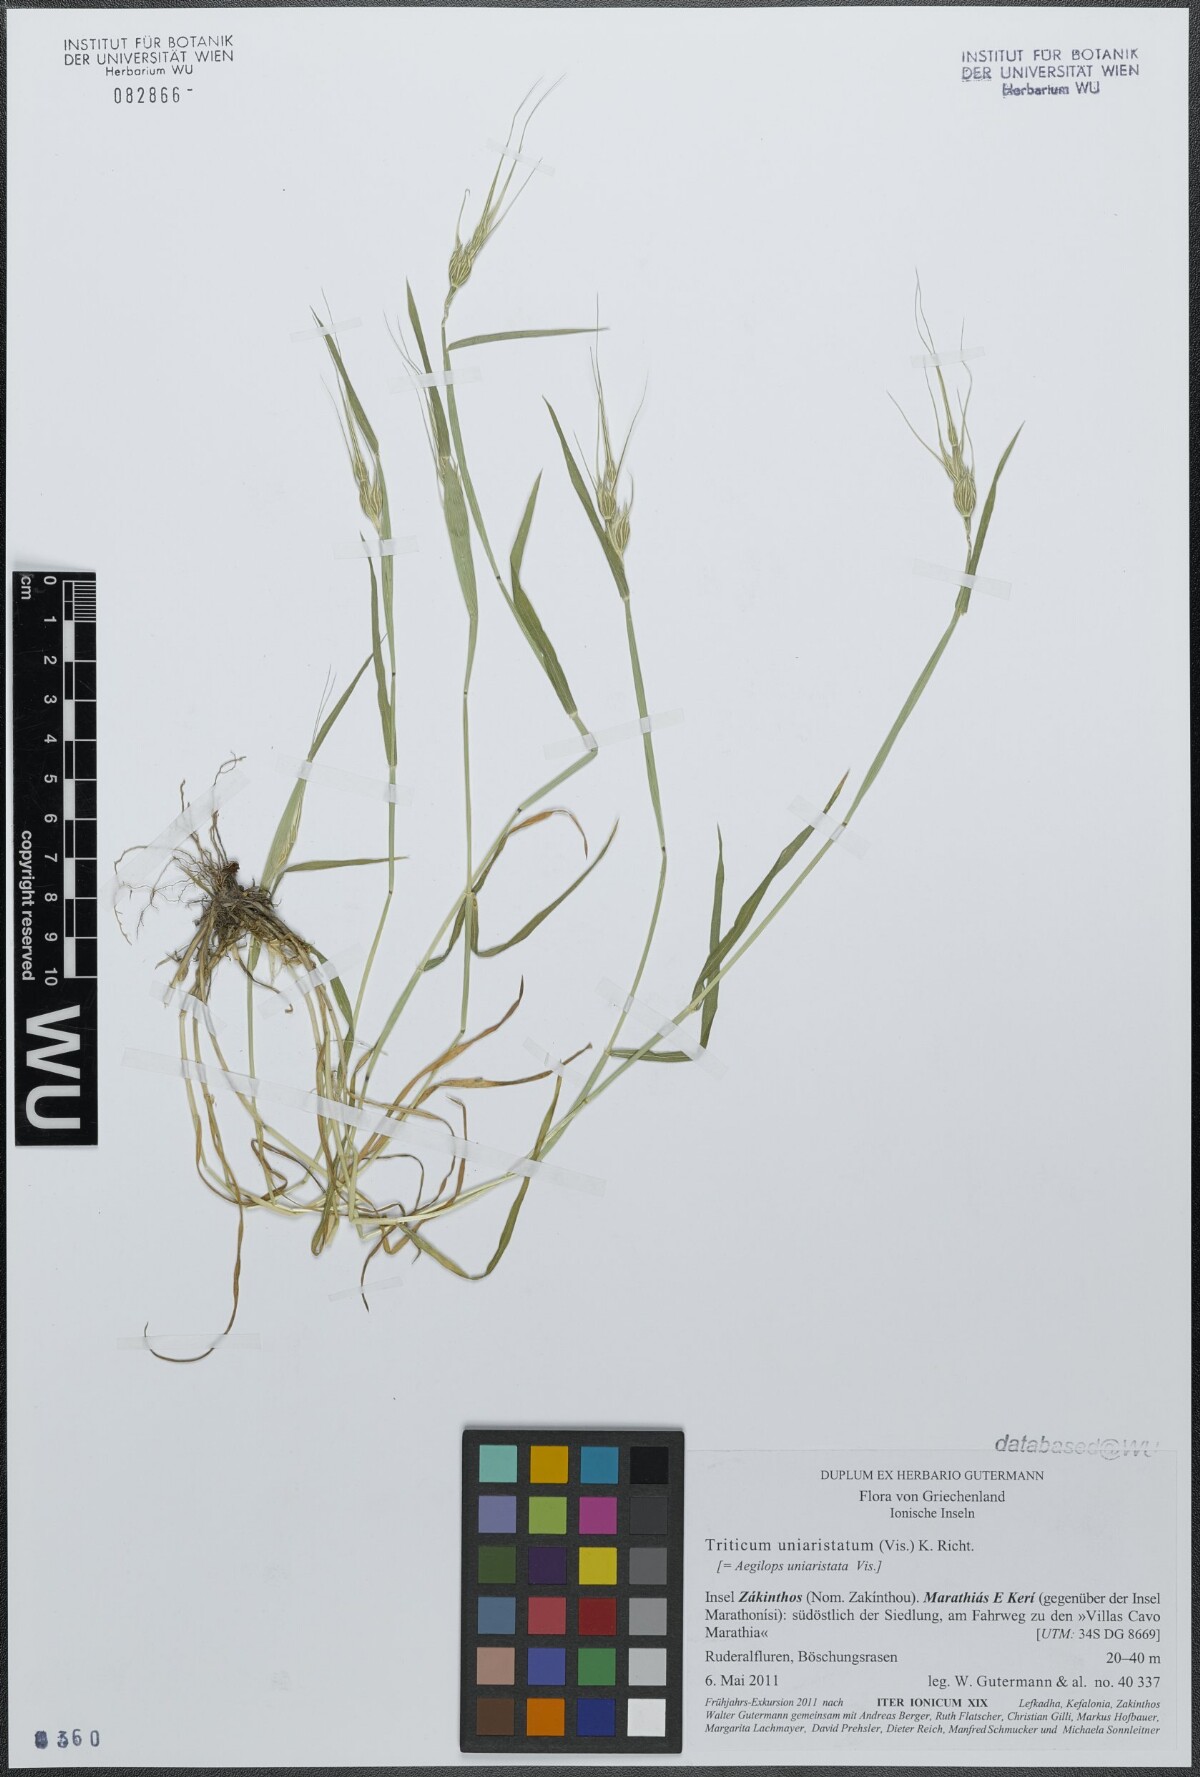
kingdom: Plantae
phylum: Tracheophyta
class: Liliopsida
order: Poales
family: Poaceae
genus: Aegilops
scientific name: Aegilops uniaristata
